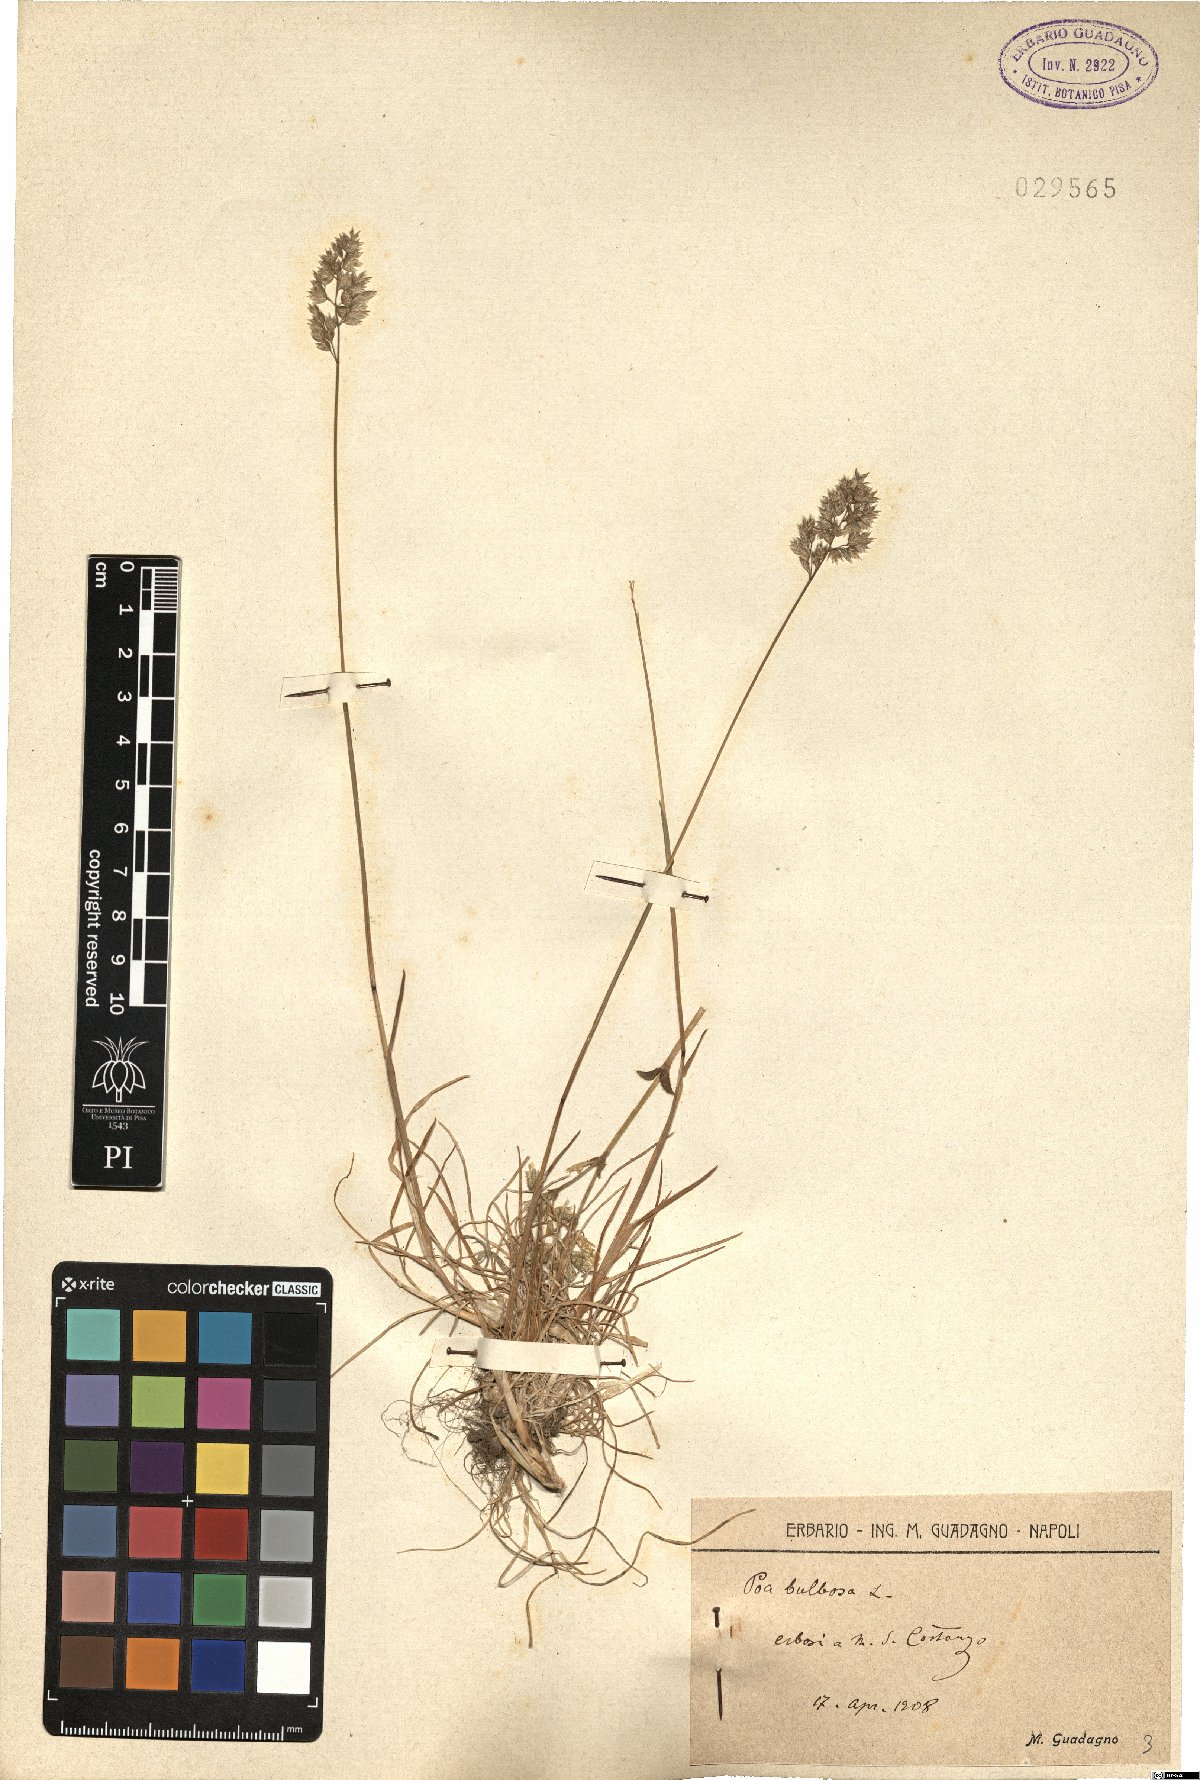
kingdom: Plantae
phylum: Tracheophyta
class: Liliopsida
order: Poales
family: Poaceae
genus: Poa
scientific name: Poa bulbosa
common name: Bulbous bluegrass
